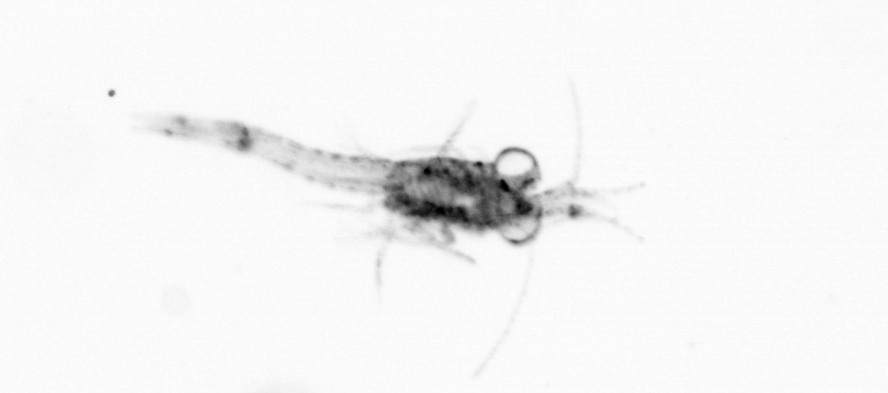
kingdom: Animalia
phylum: Arthropoda
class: Malacostraca
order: Decapoda
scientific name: Decapoda
